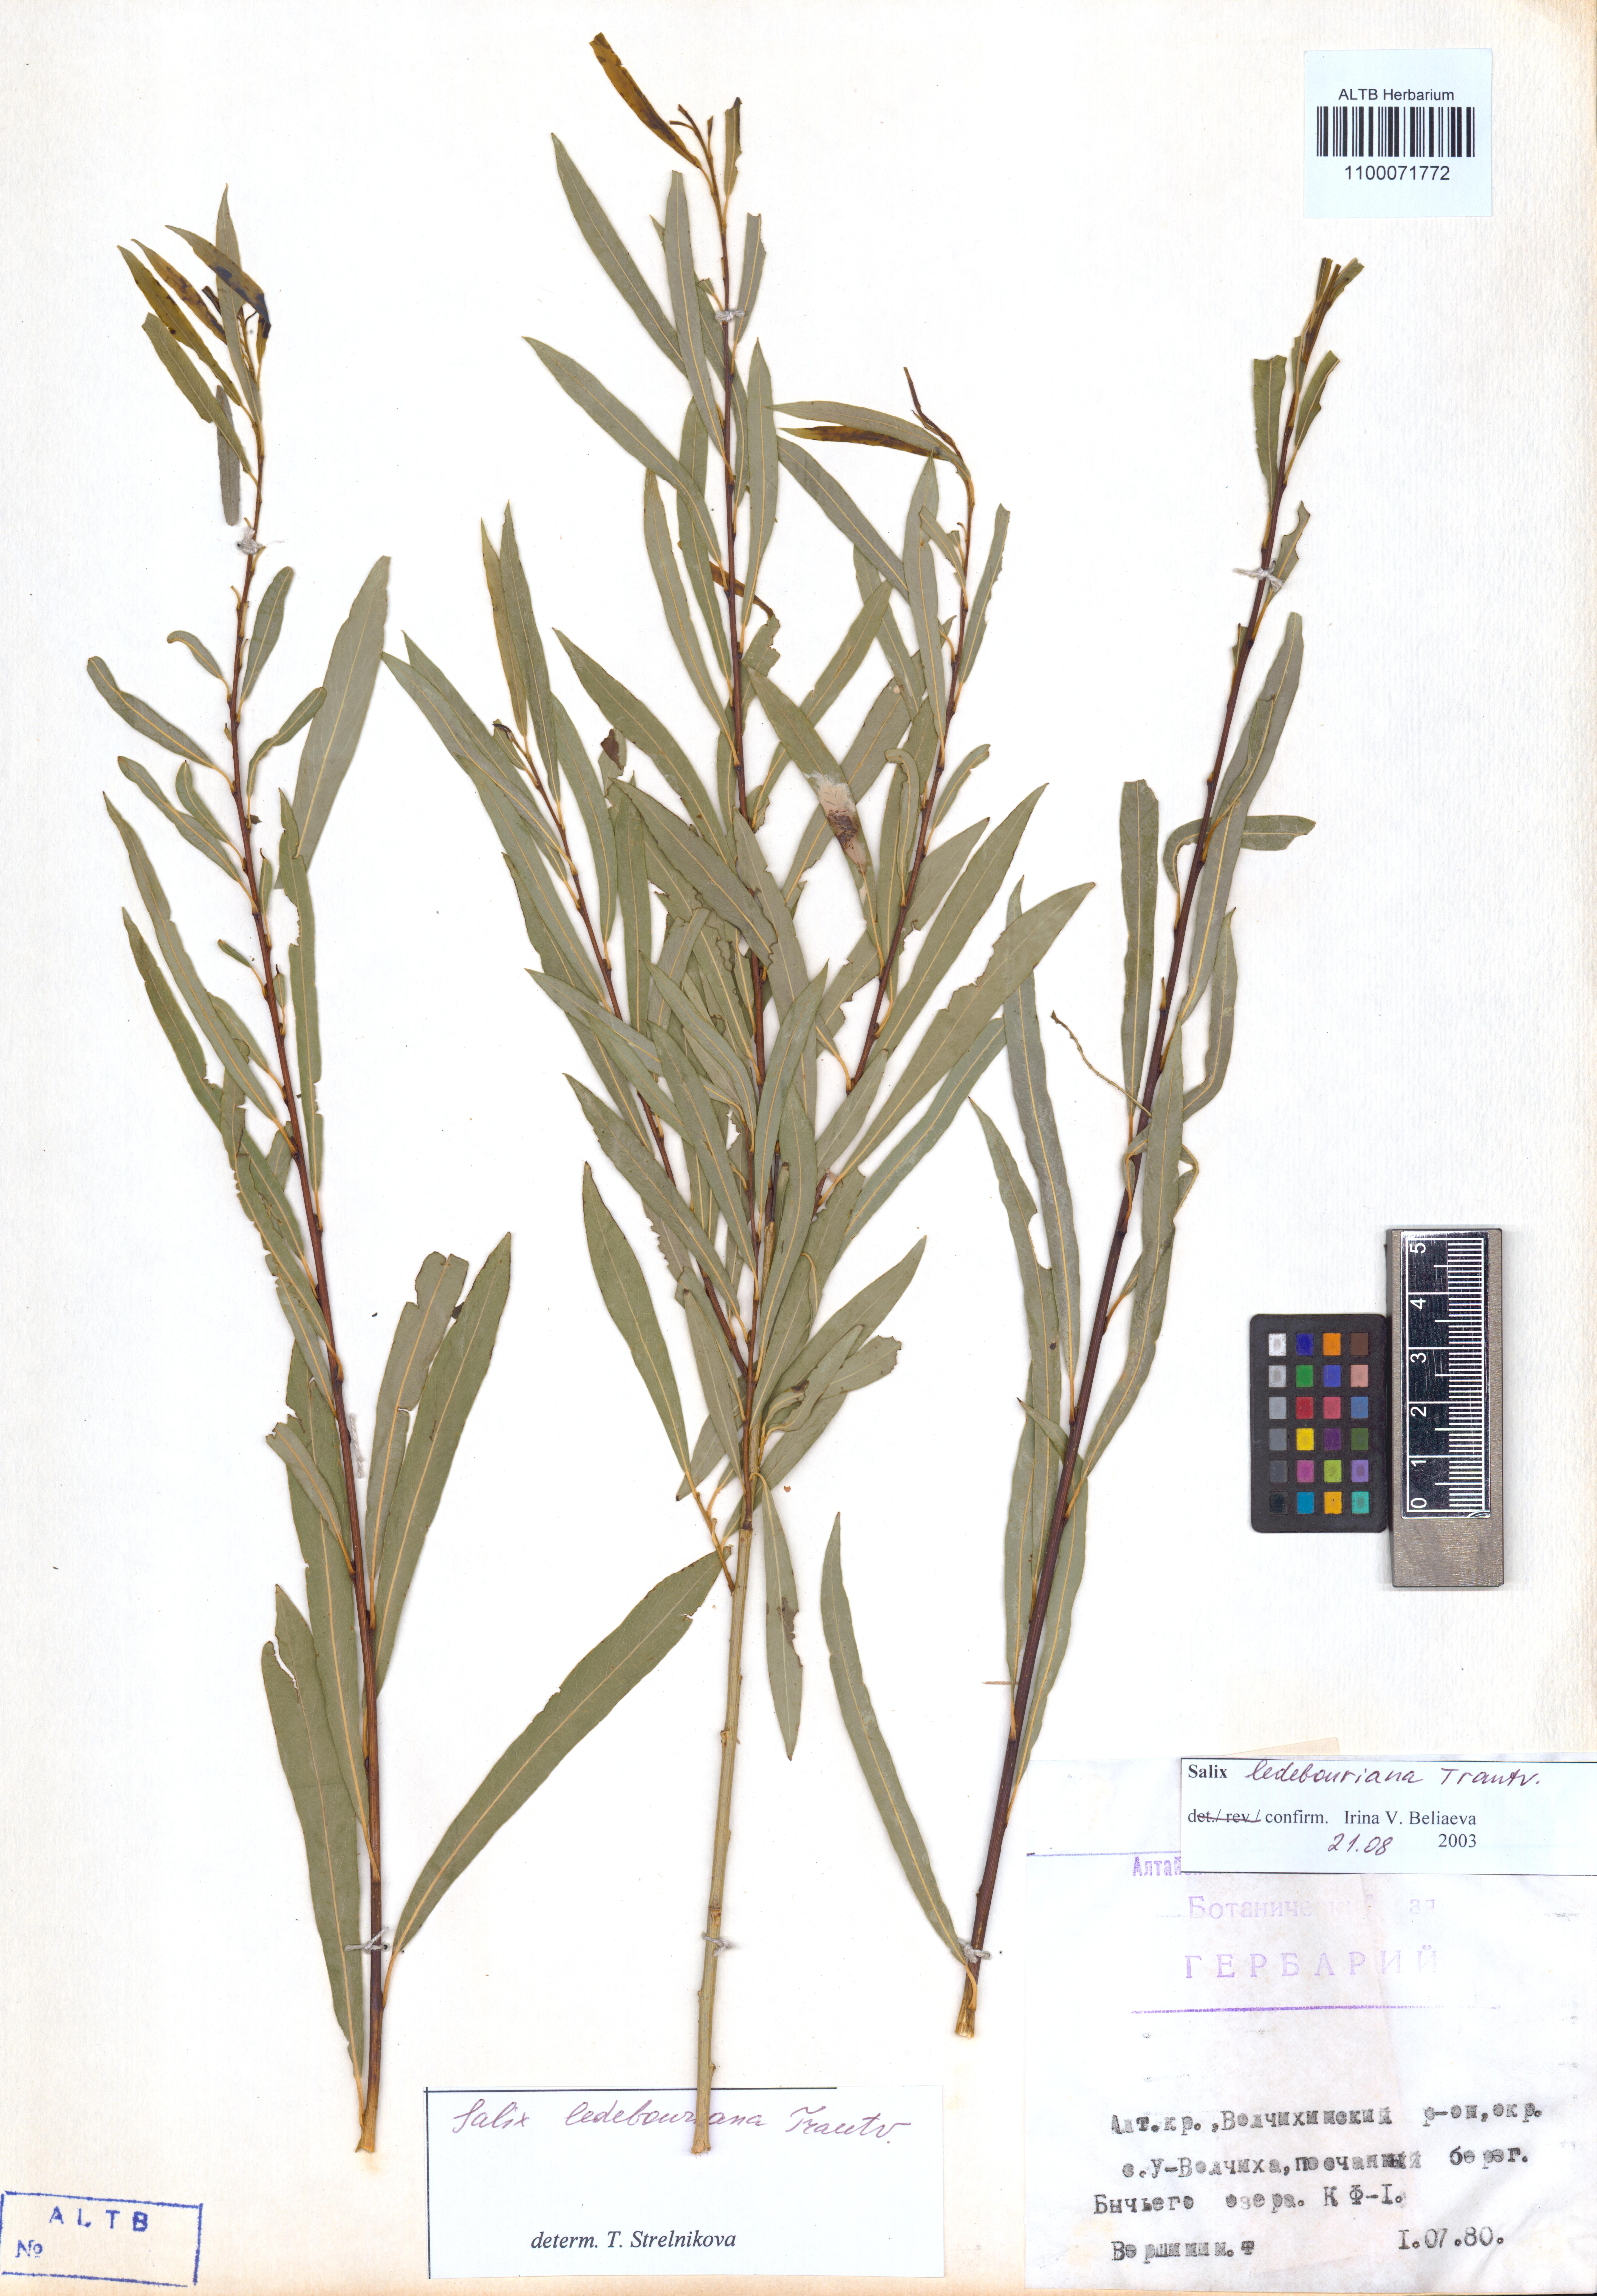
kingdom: Plantae
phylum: Tracheophyta
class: Magnoliopsida
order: Malpighiales
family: Salicaceae
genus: Salix
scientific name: Salix ledebouriana
